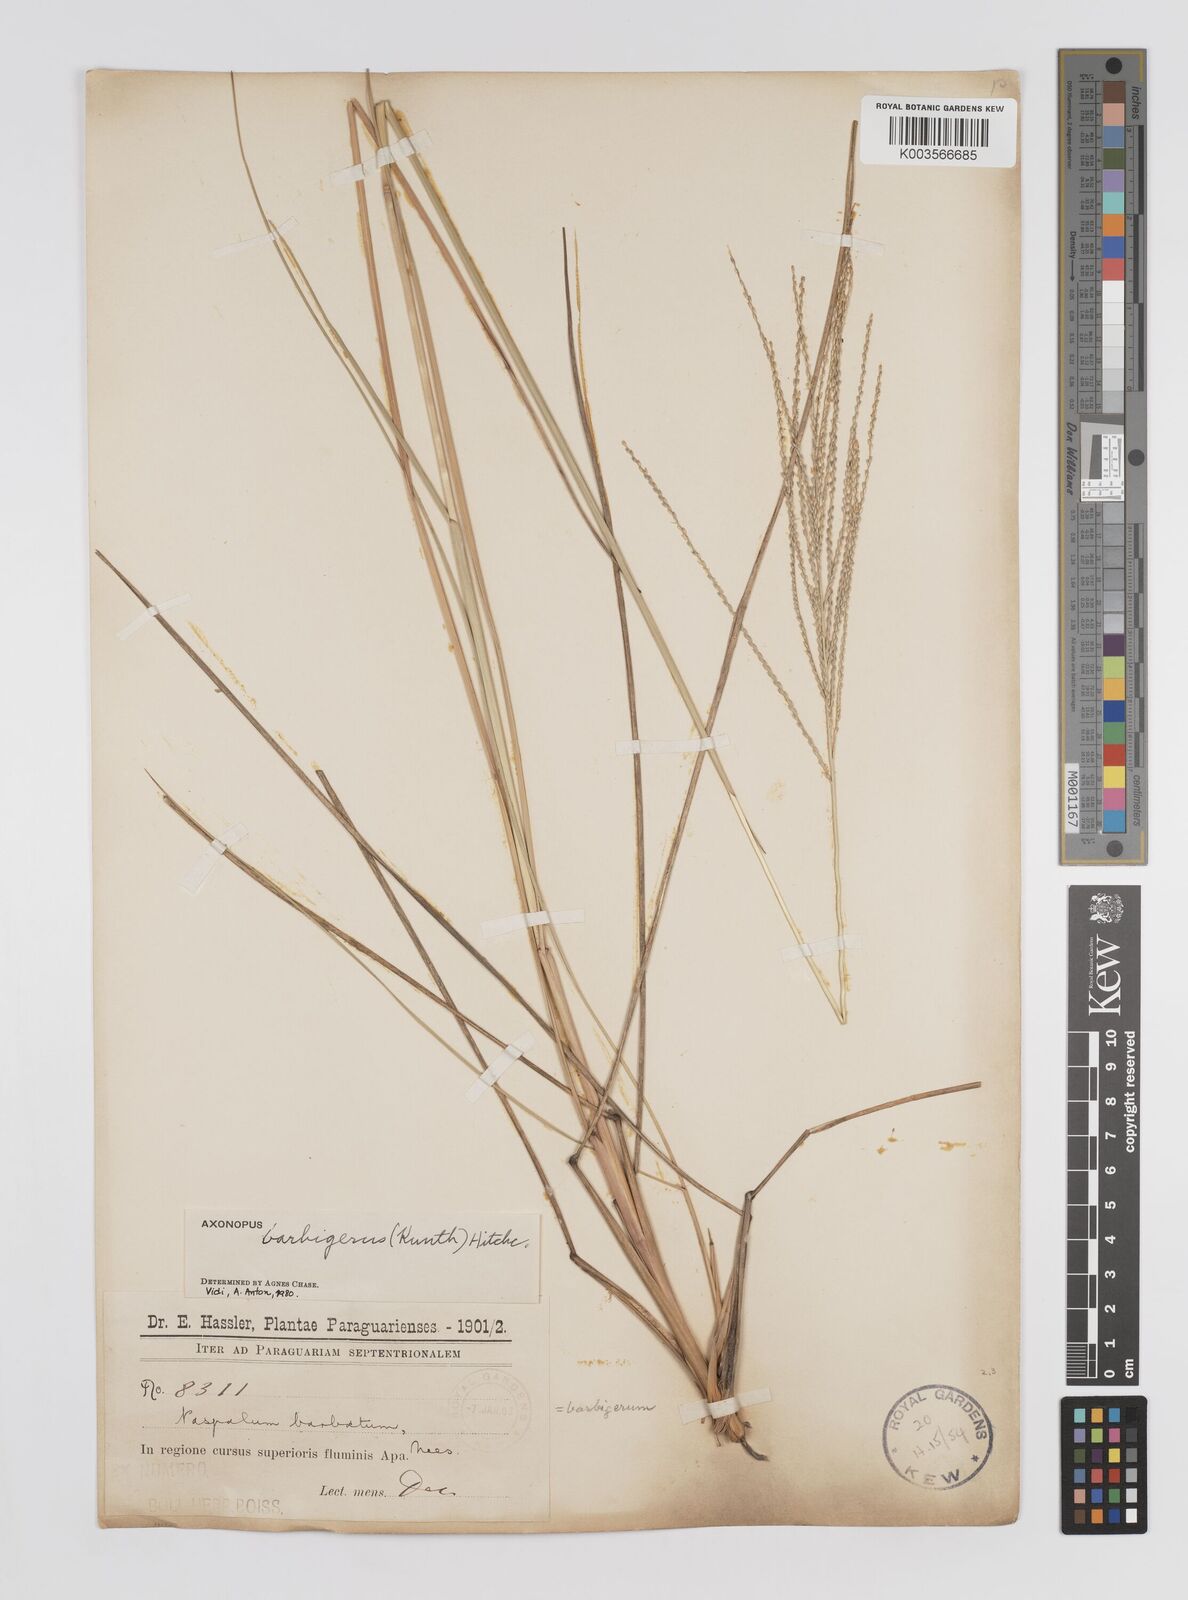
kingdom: Plantae
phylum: Tracheophyta
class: Liliopsida
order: Poales
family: Poaceae
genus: Axonopus
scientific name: Axonopus siccus
